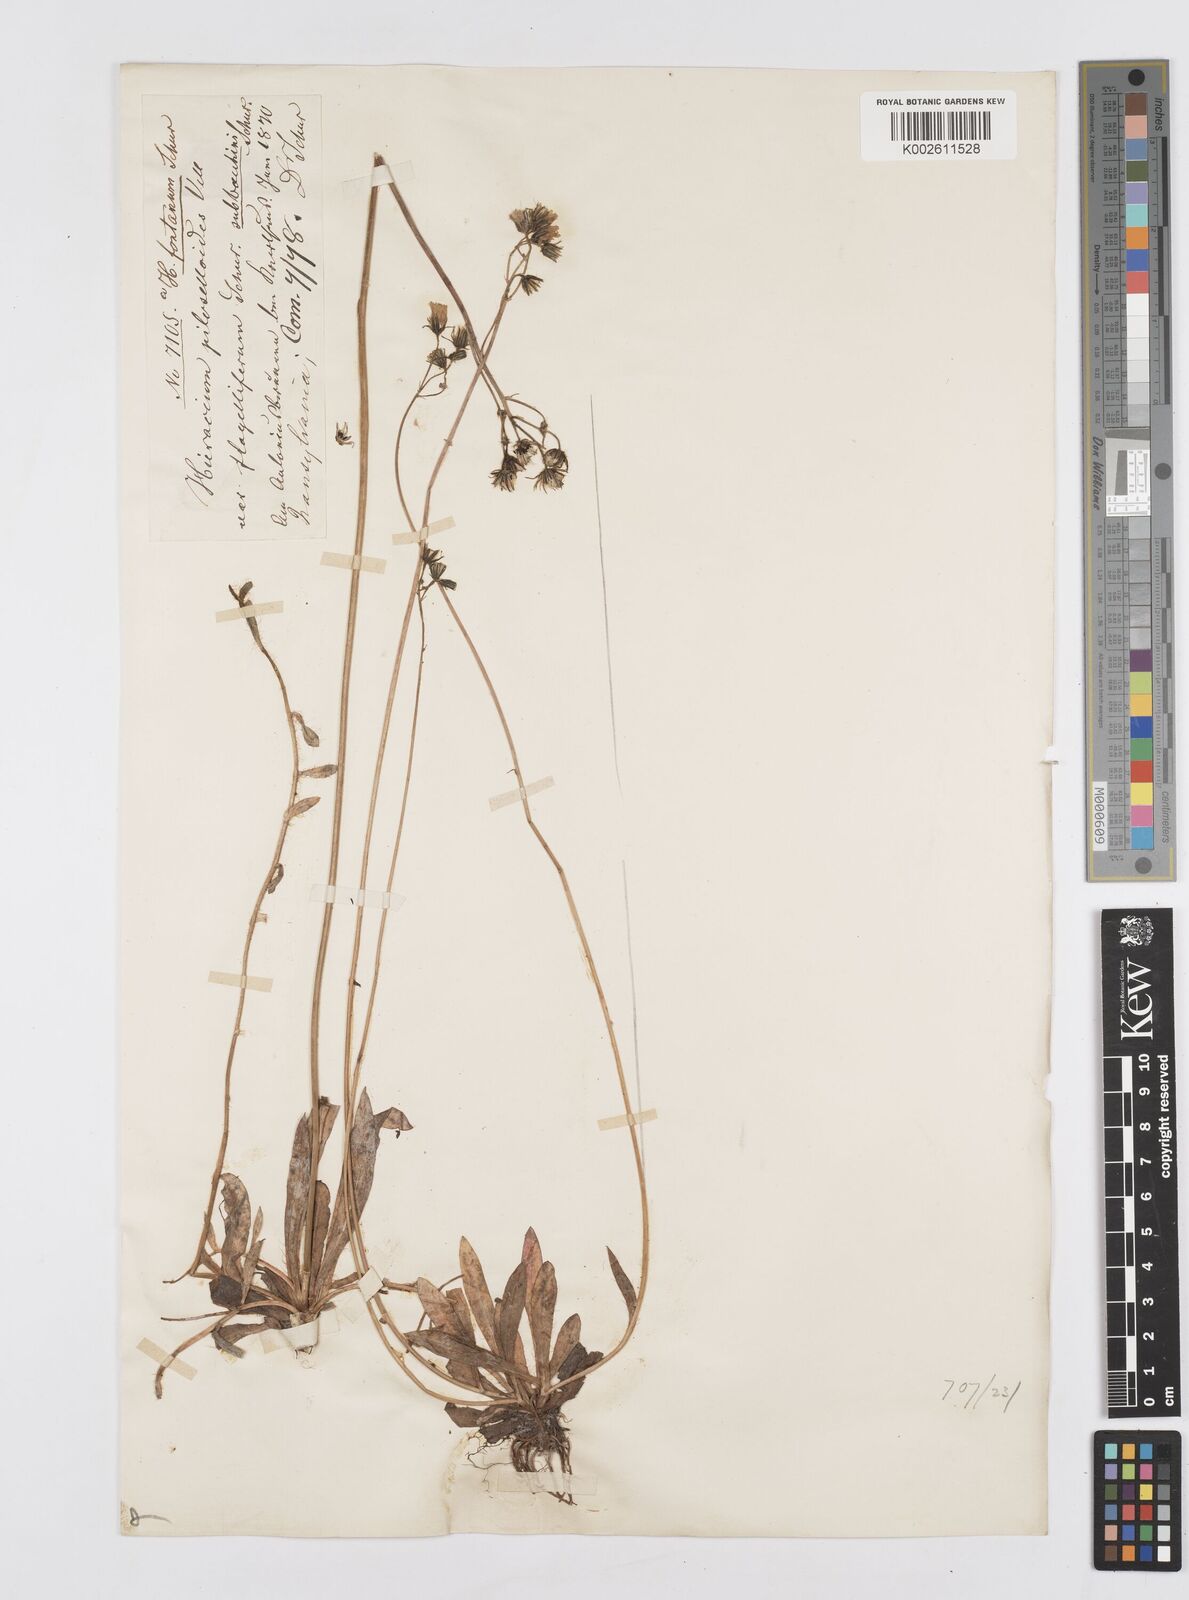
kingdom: Plantae
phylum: Tracheophyta
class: Magnoliopsida
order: Asterales
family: Asteraceae
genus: Pilosella
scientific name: Pilosella leptophyton
